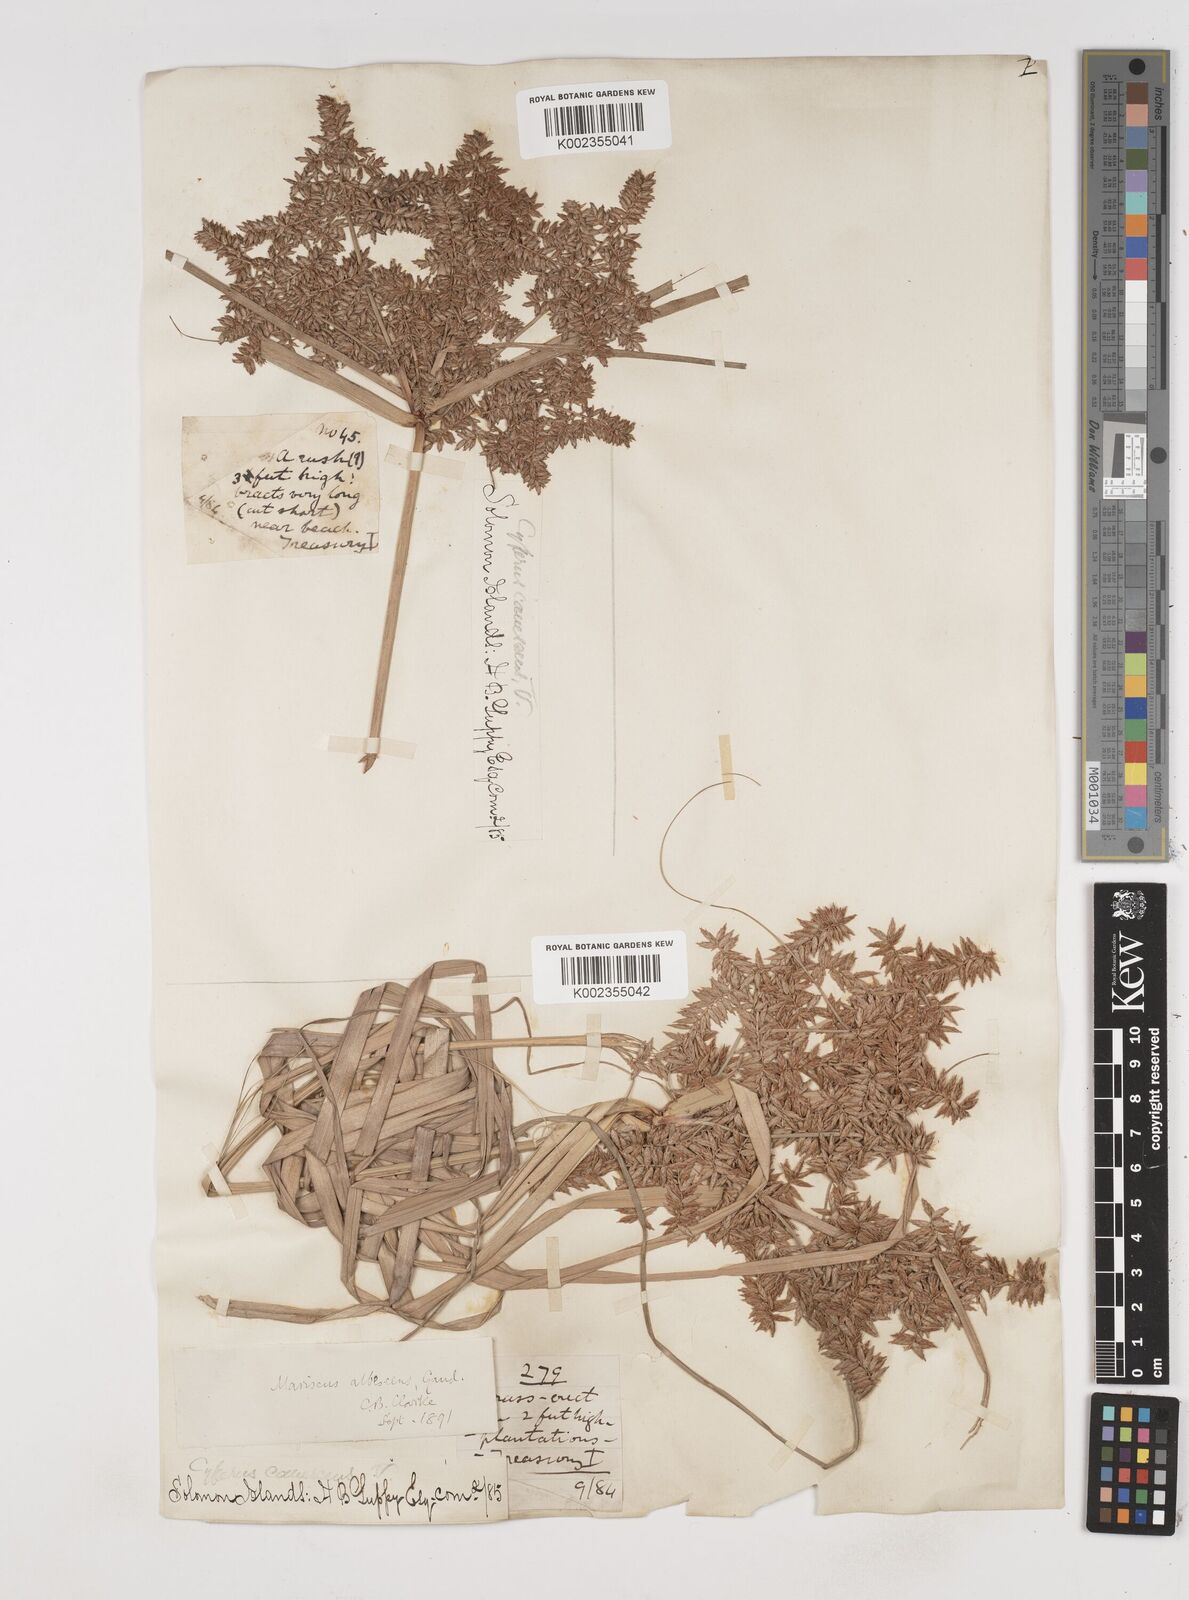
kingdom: Plantae
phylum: Tracheophyta
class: Liliopsida
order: Poales
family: Cyperaceae
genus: Cyperus
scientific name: Cyperus javanicus
